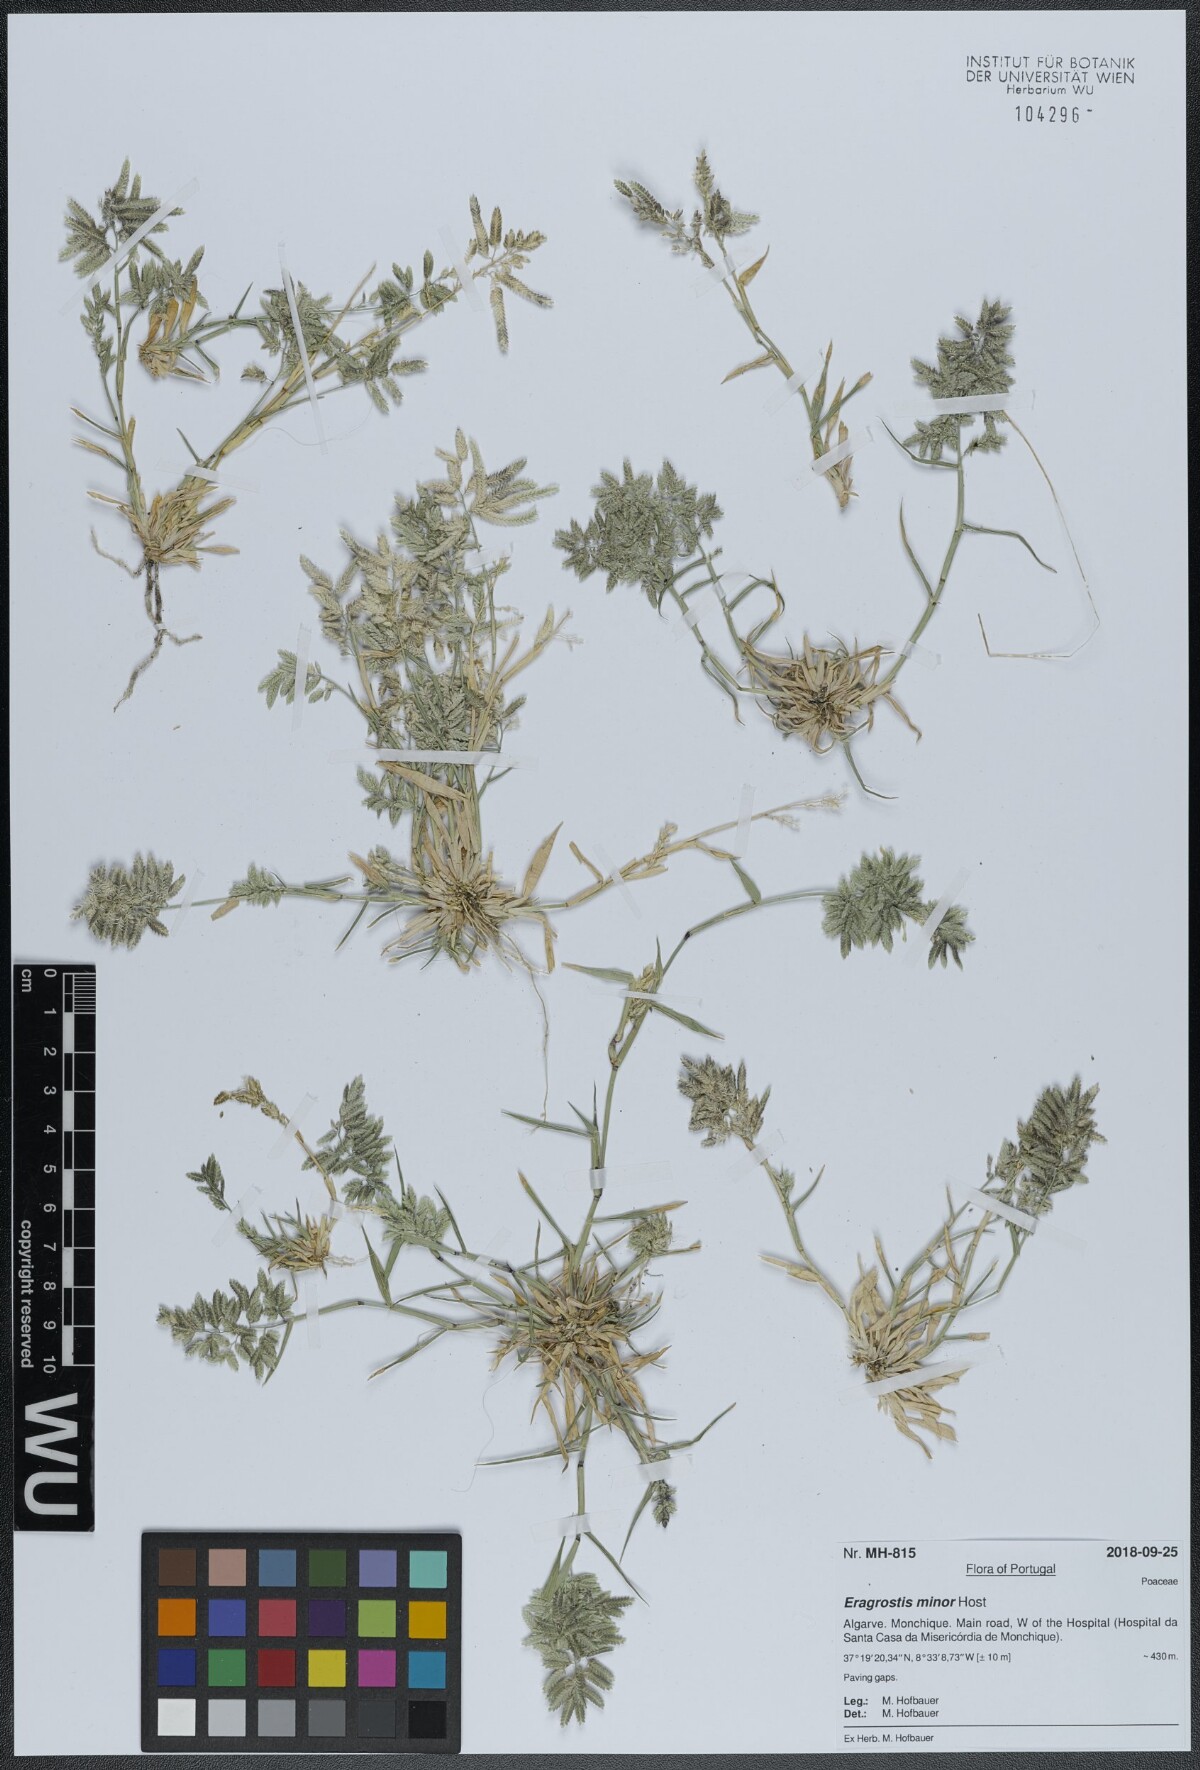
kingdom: Plantae
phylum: Tracheophyta
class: Liliopsida
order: Poales
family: Poaceae
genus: Eragrostis
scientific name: Eragrostis minor
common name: Small love-grass
